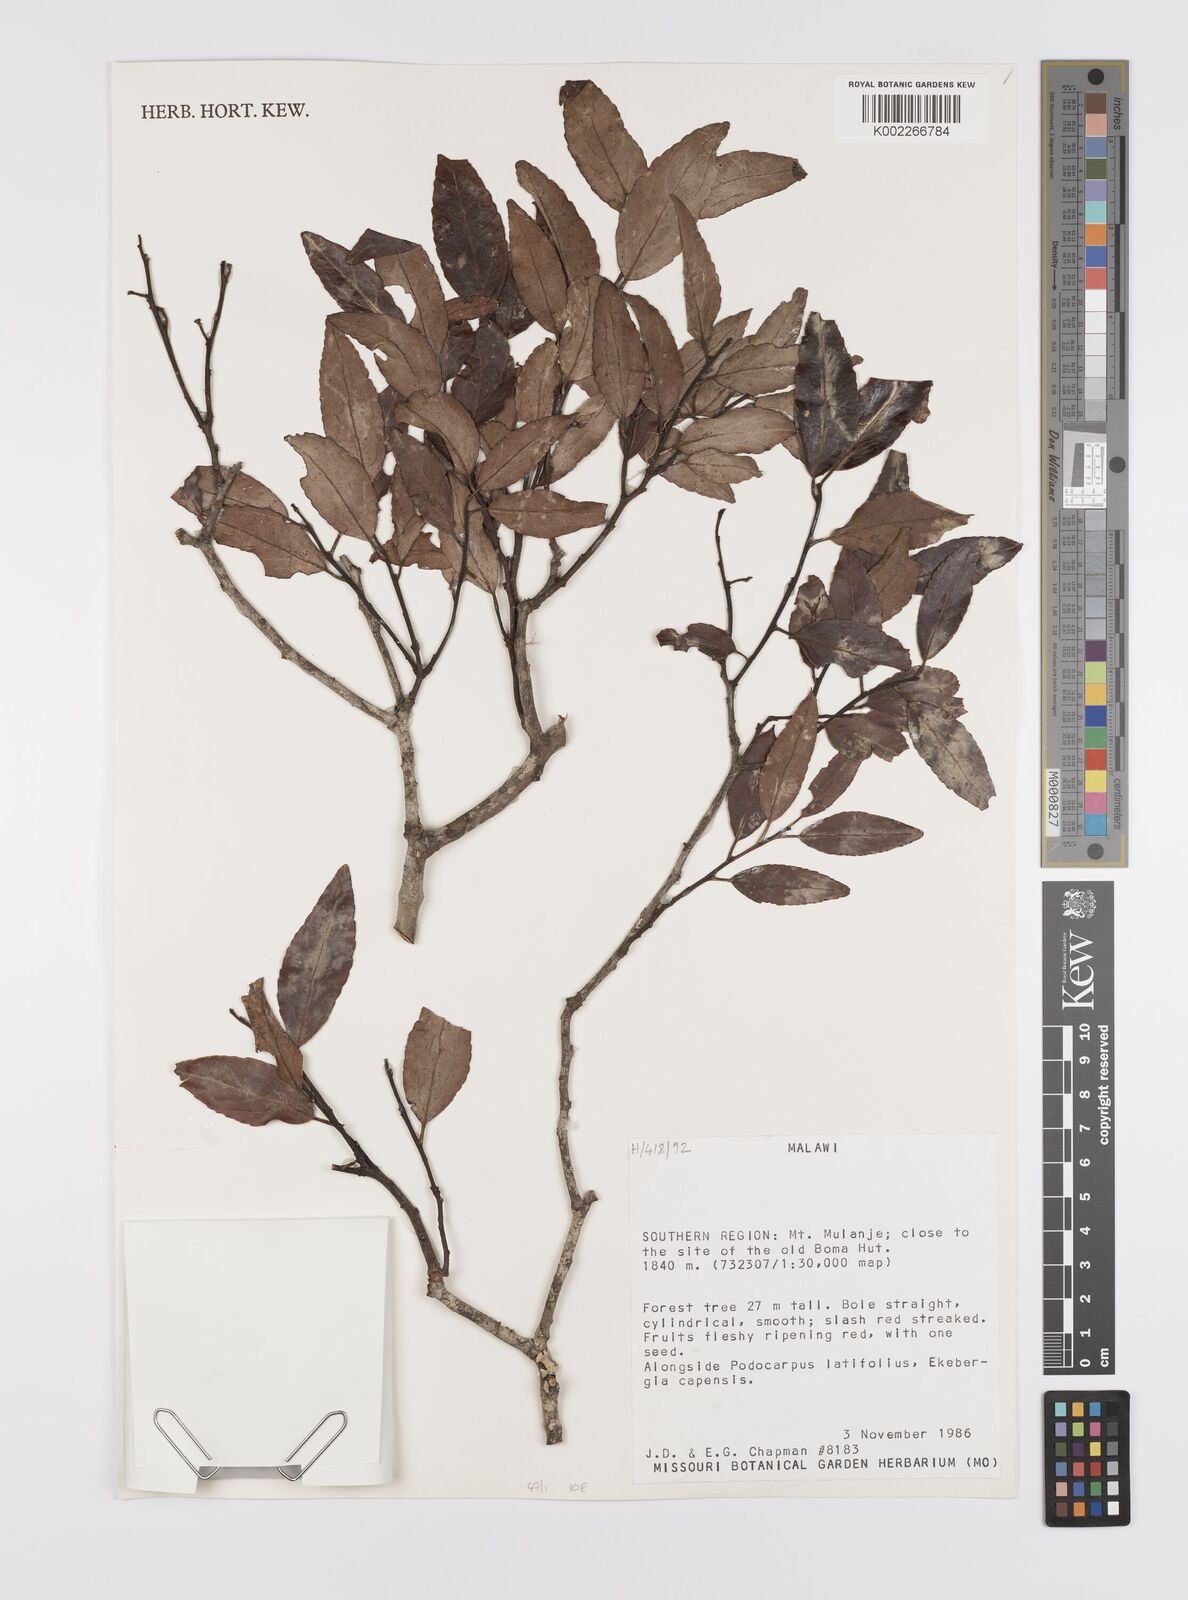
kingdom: Plantae
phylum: Tracheophyta
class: Magnoliopsida
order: Celastrales
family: Celastraceae
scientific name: Celastraceae
